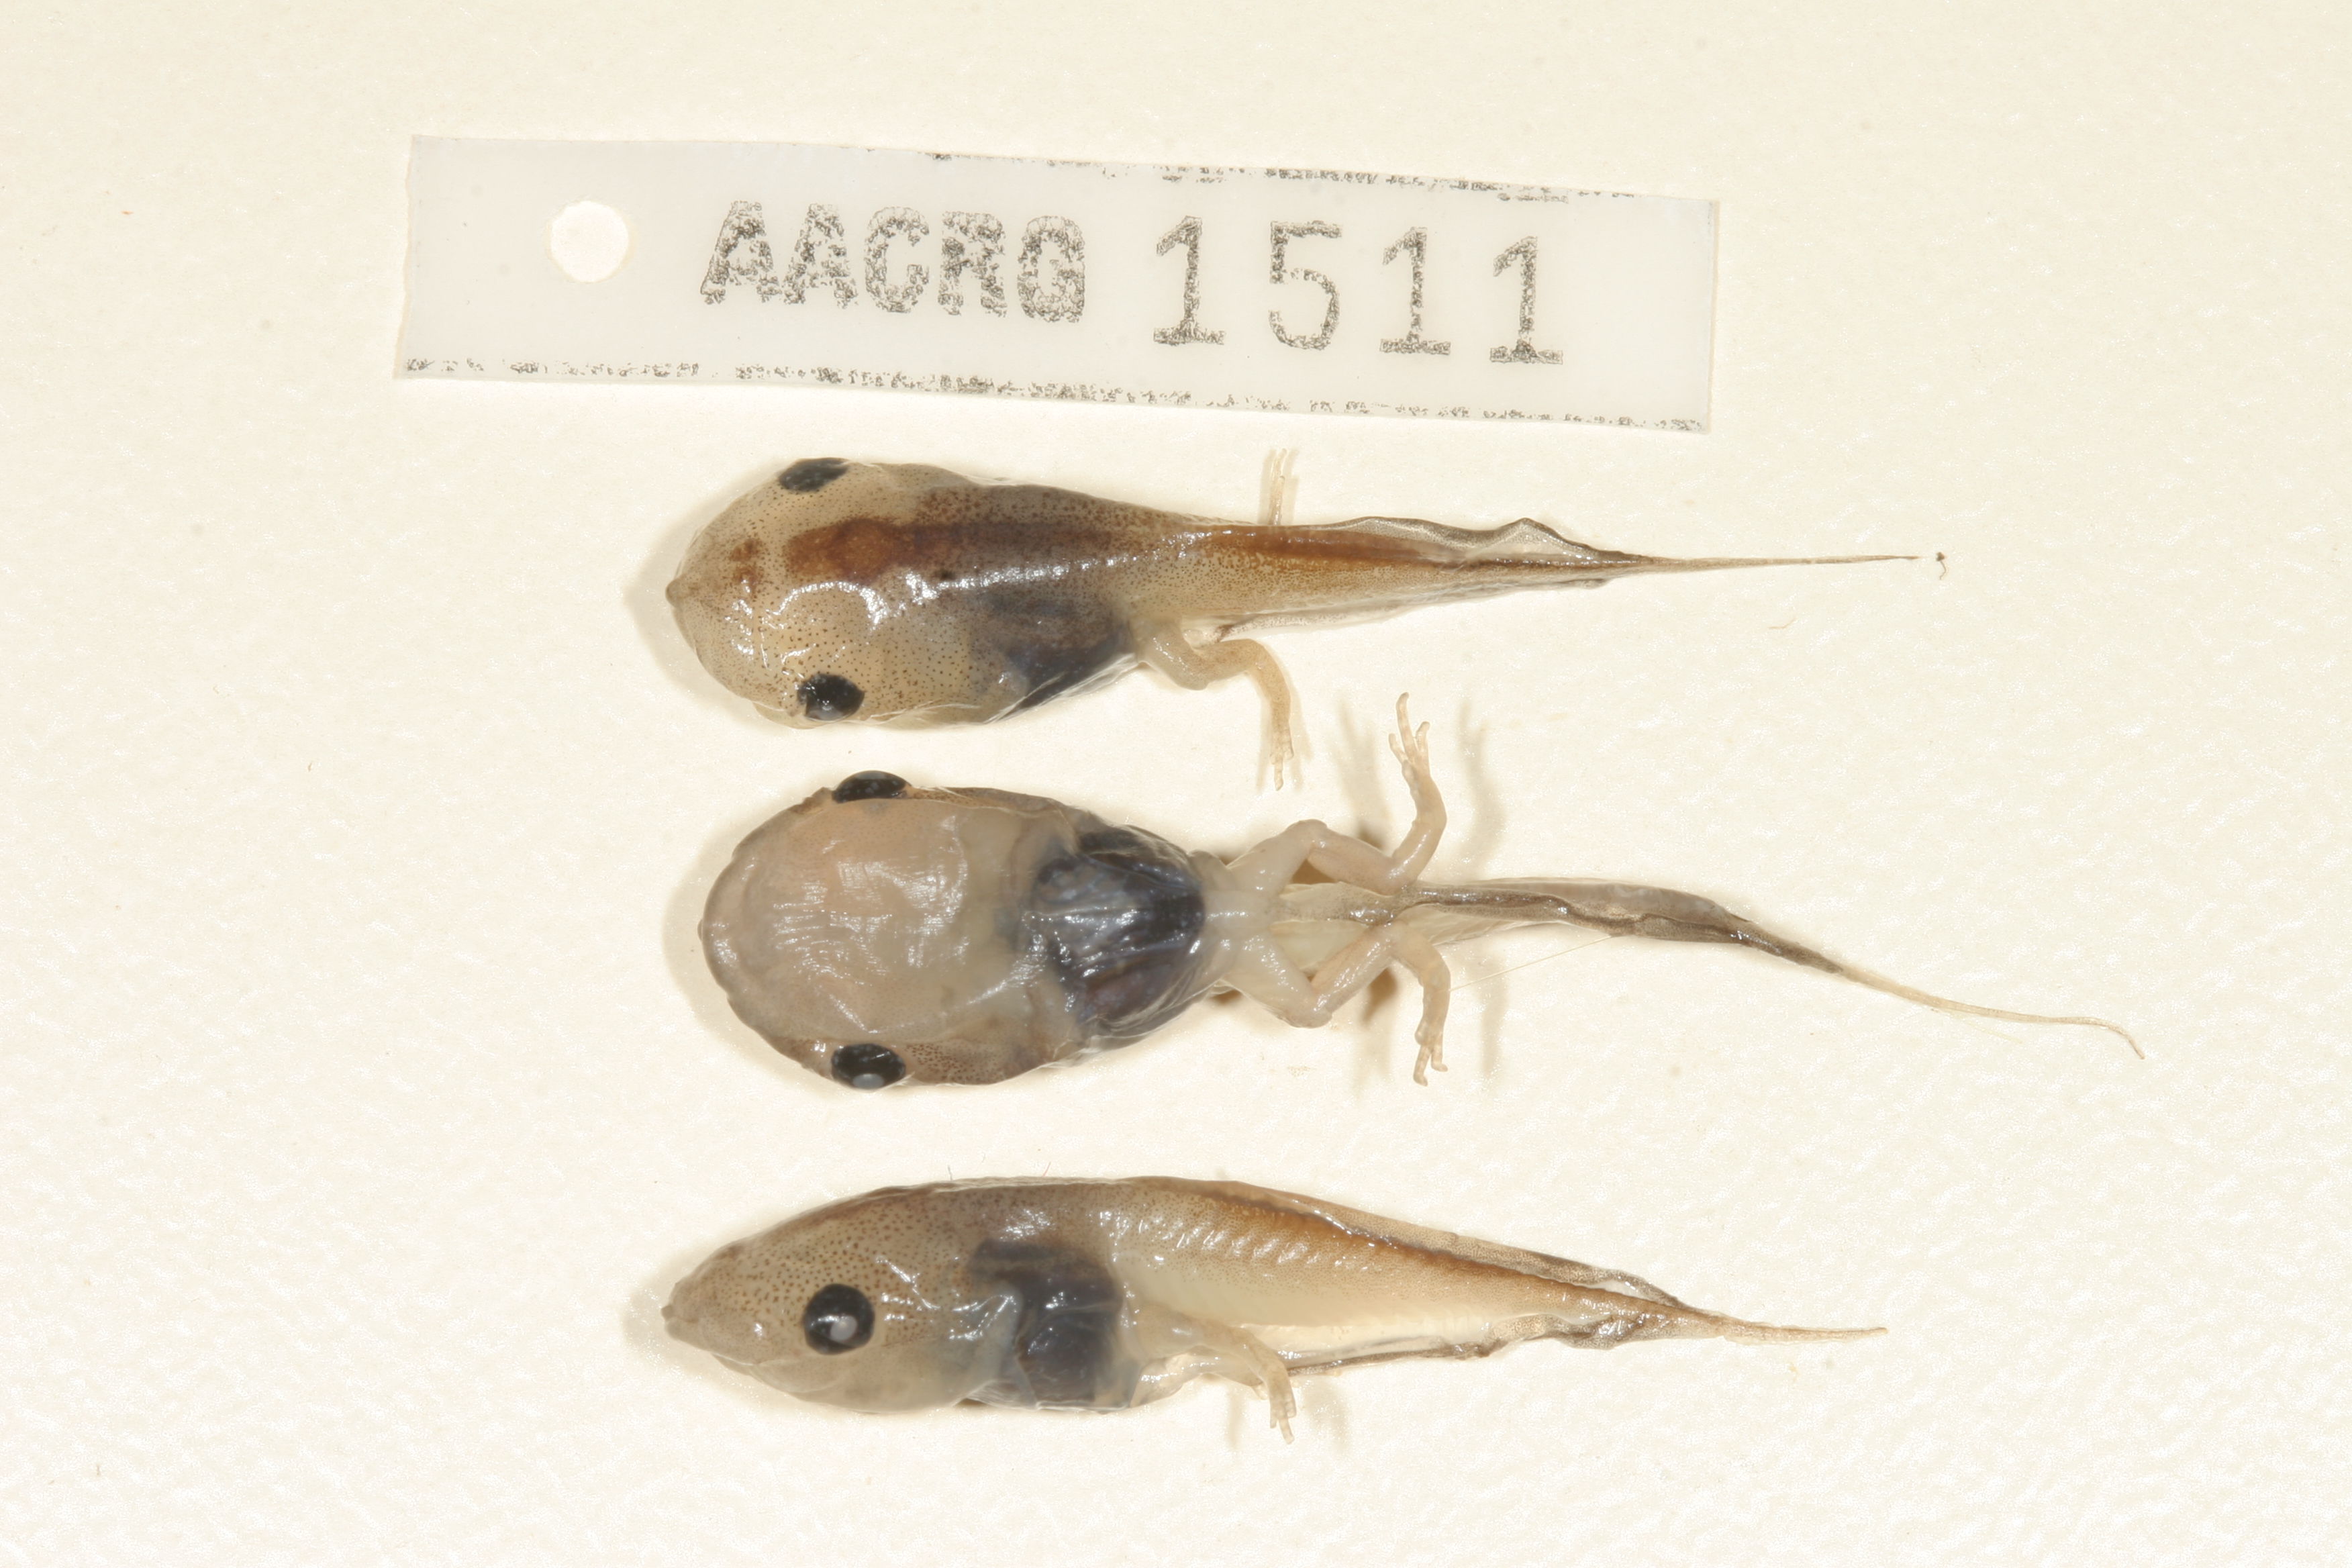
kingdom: Animalia
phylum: Chordata
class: Amphibia
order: Anura
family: Microhylidae
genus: Phrynomantis
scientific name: Phrynomantis bifasciatus
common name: Banded rubber frog
